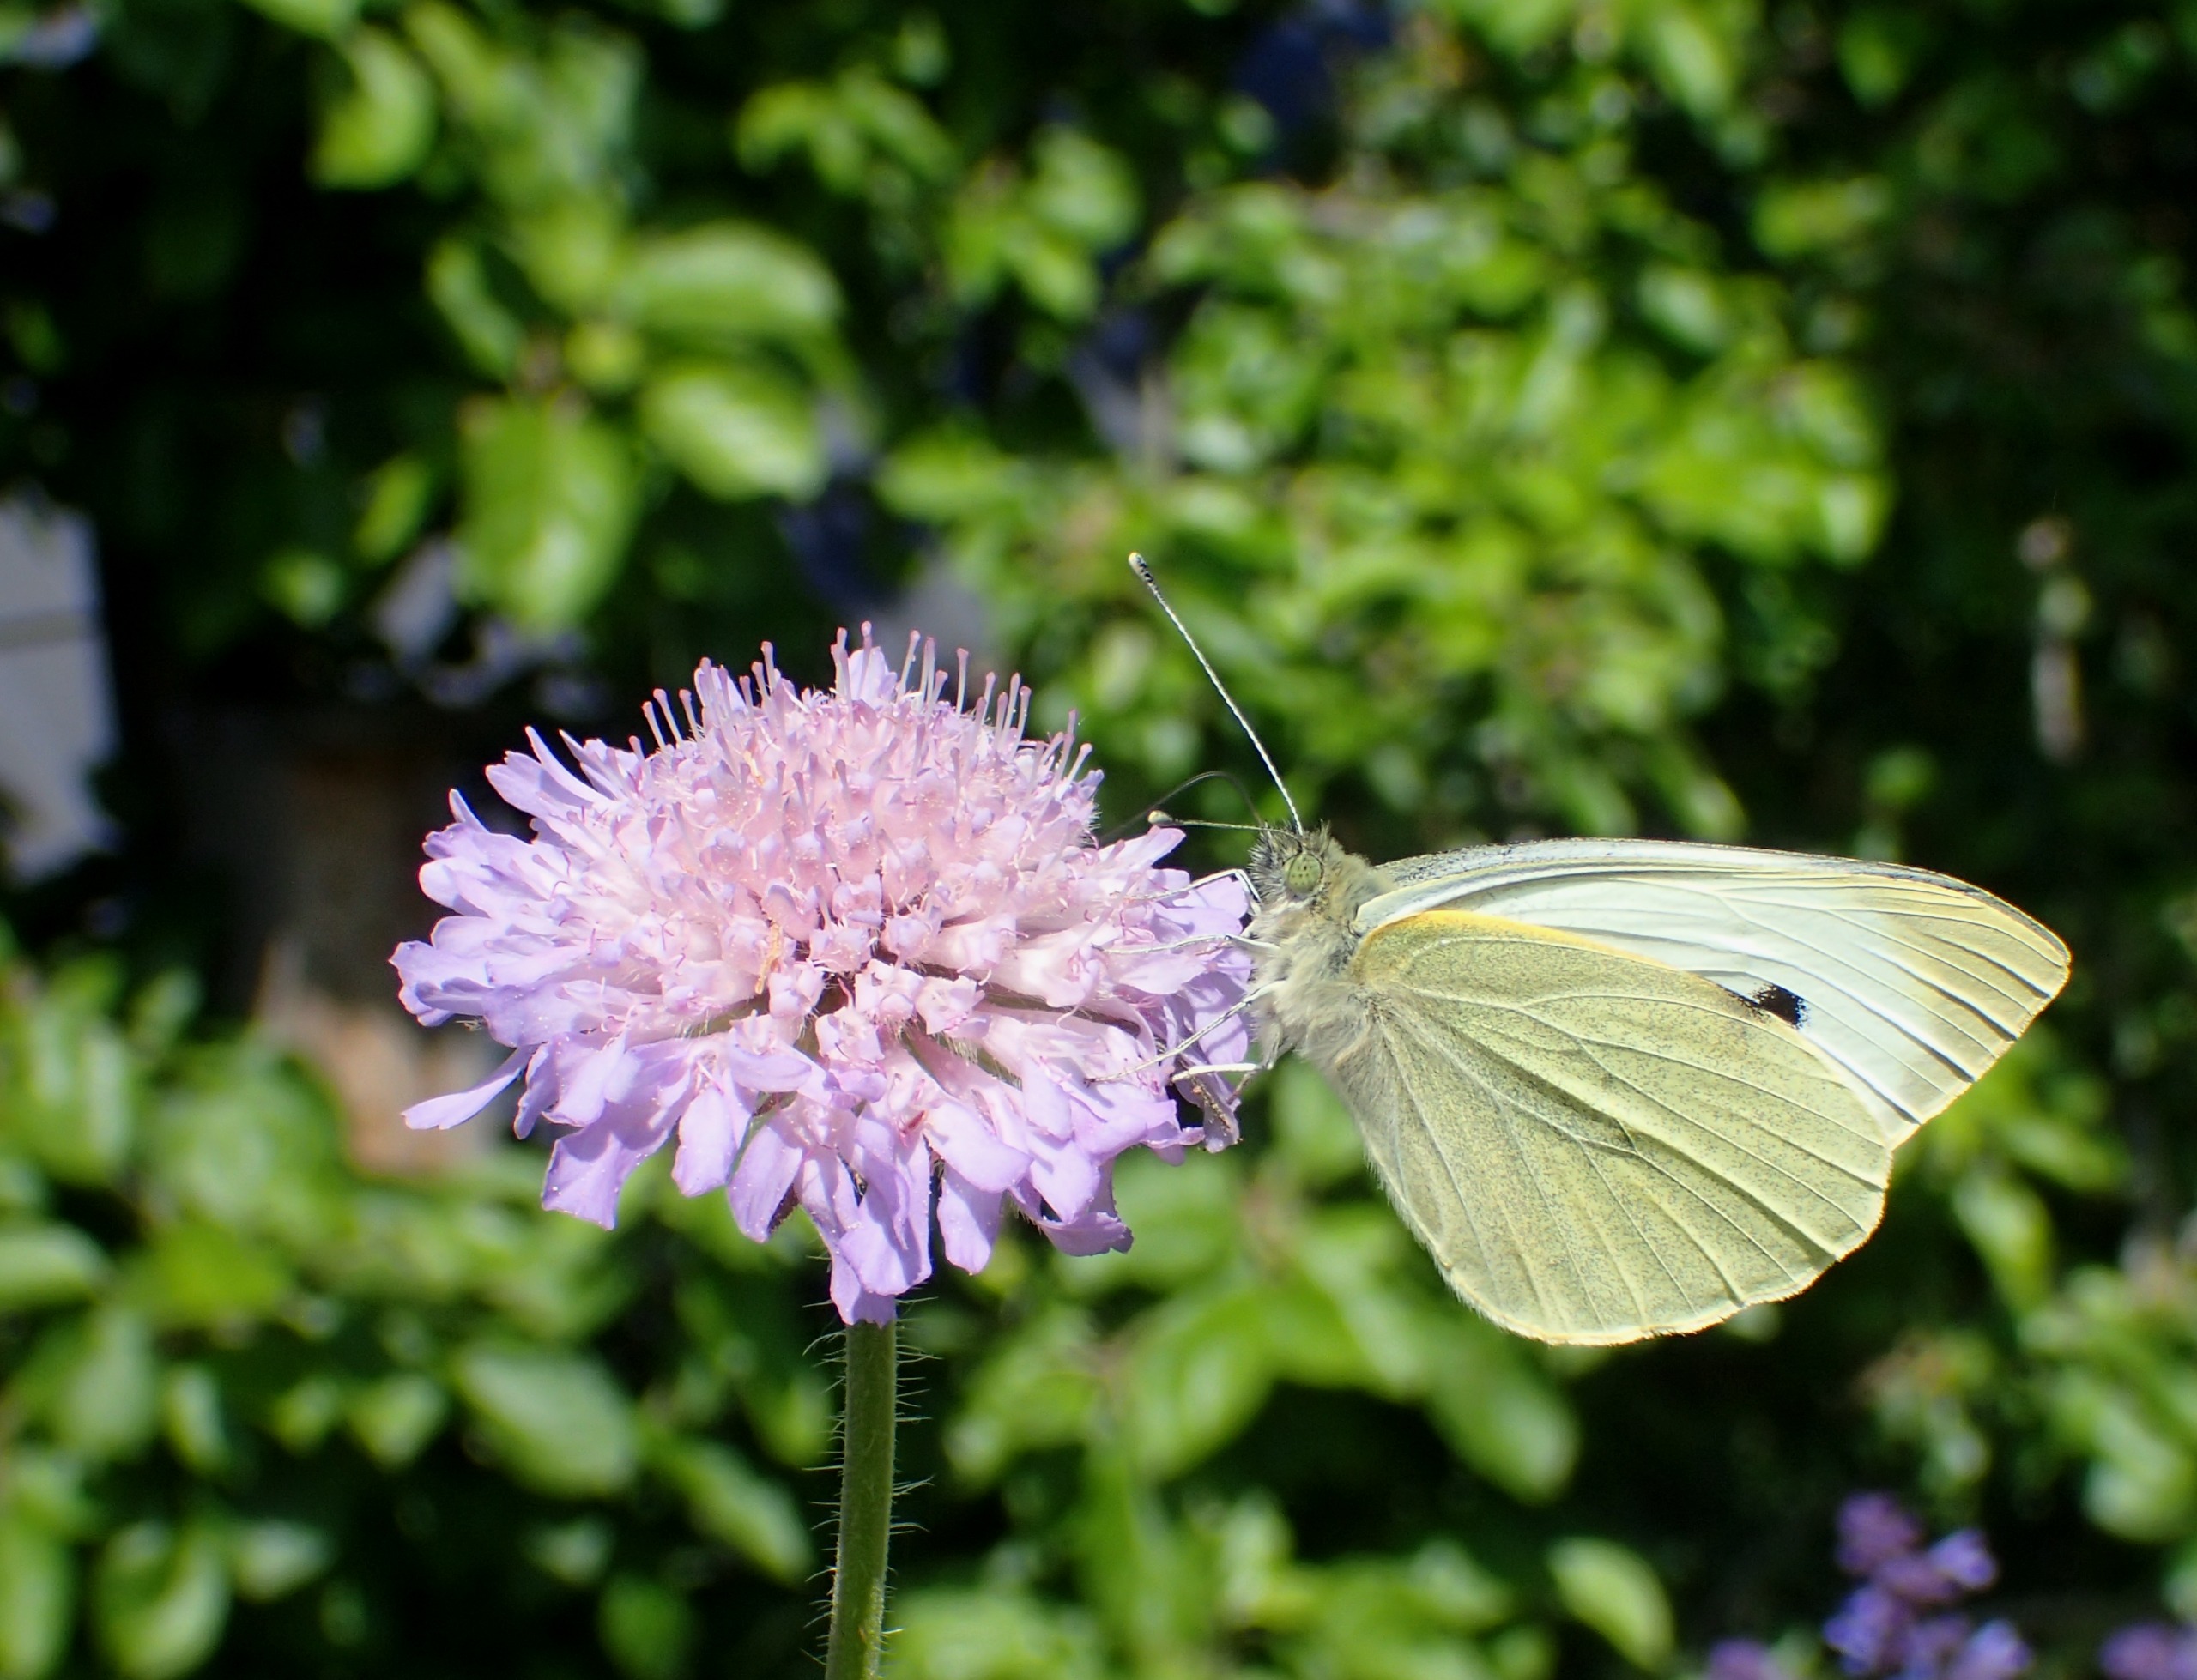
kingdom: Animalia
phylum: Arthropoda
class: Insecta
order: Lepidoptera
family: Pieridae
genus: Pieris
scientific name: Pieris brassicae
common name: Stor kålsommerfugl
